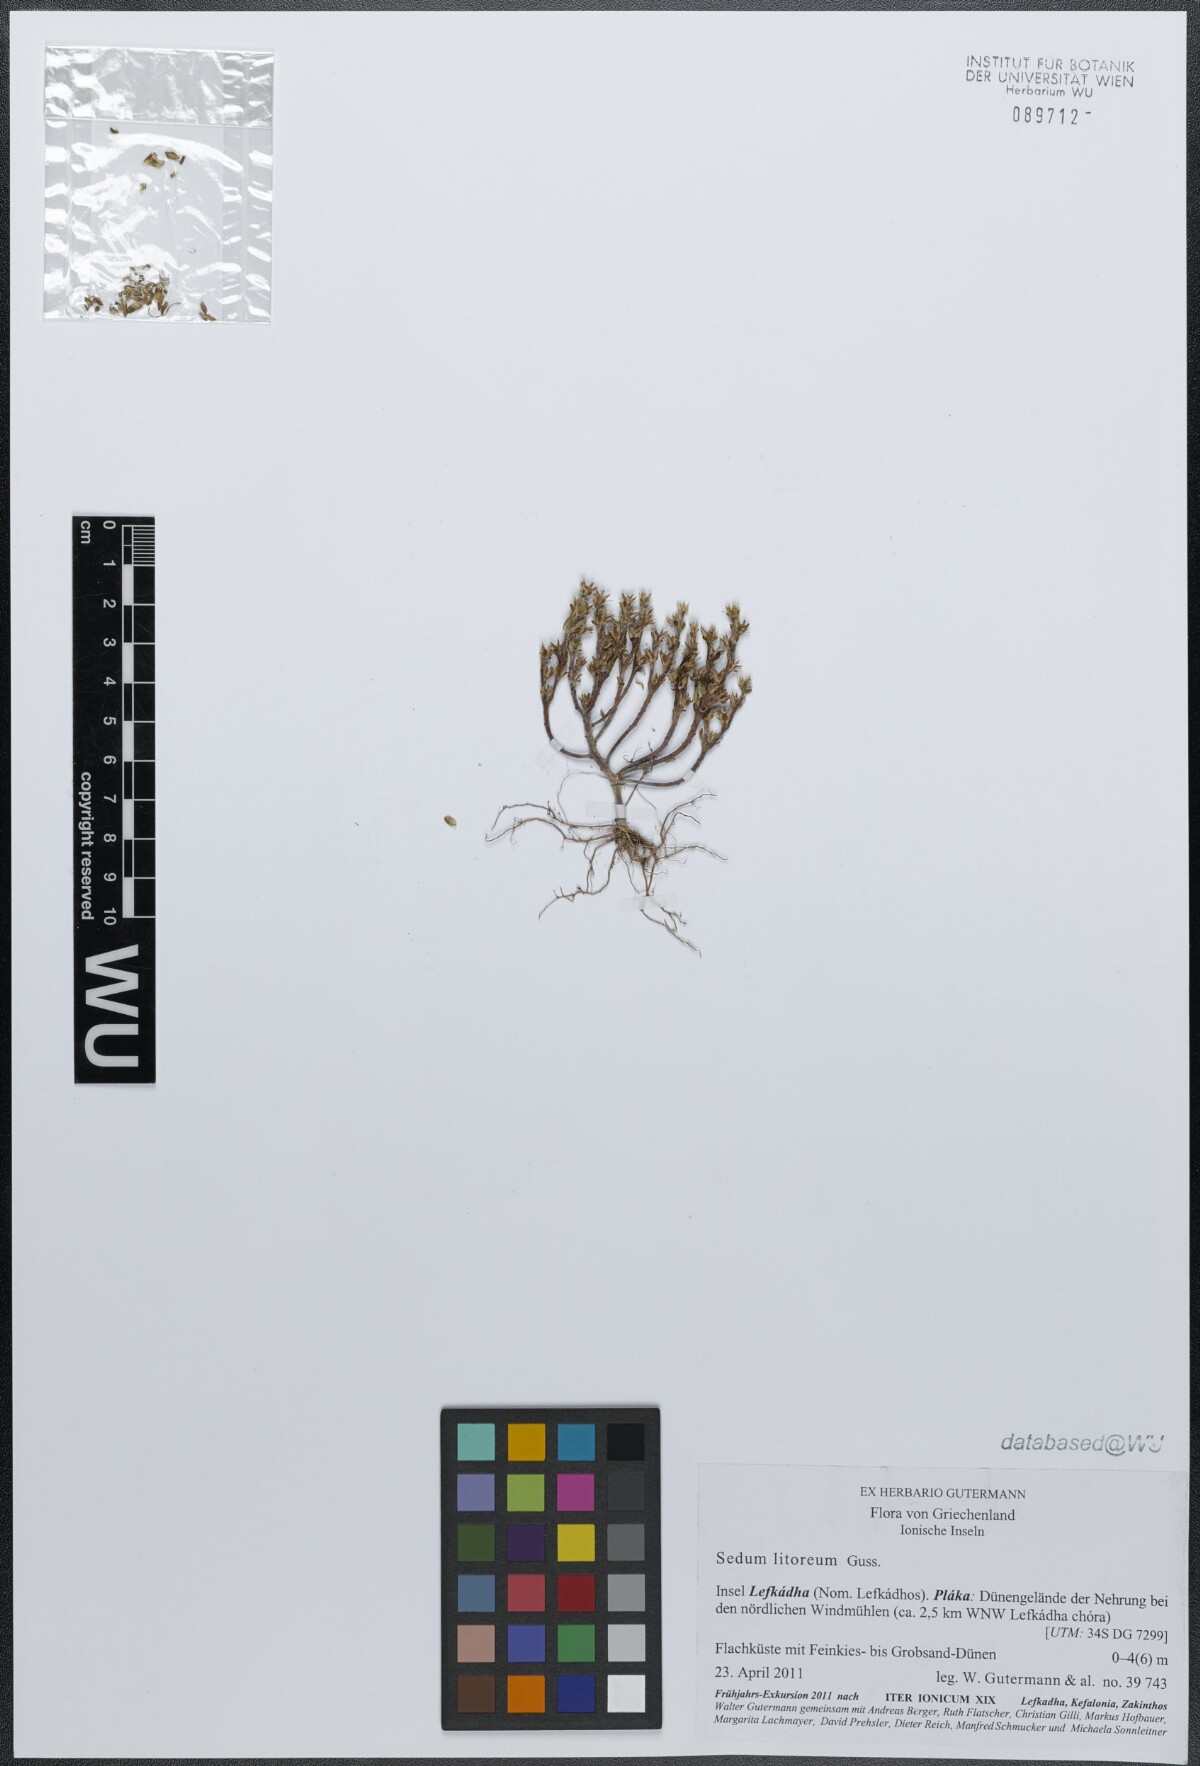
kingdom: Plantae
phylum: Tracheophyta
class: Magnoliopsida
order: Saxifragales
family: Crassulaceae
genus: Sedum
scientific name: Sedum litoreum
